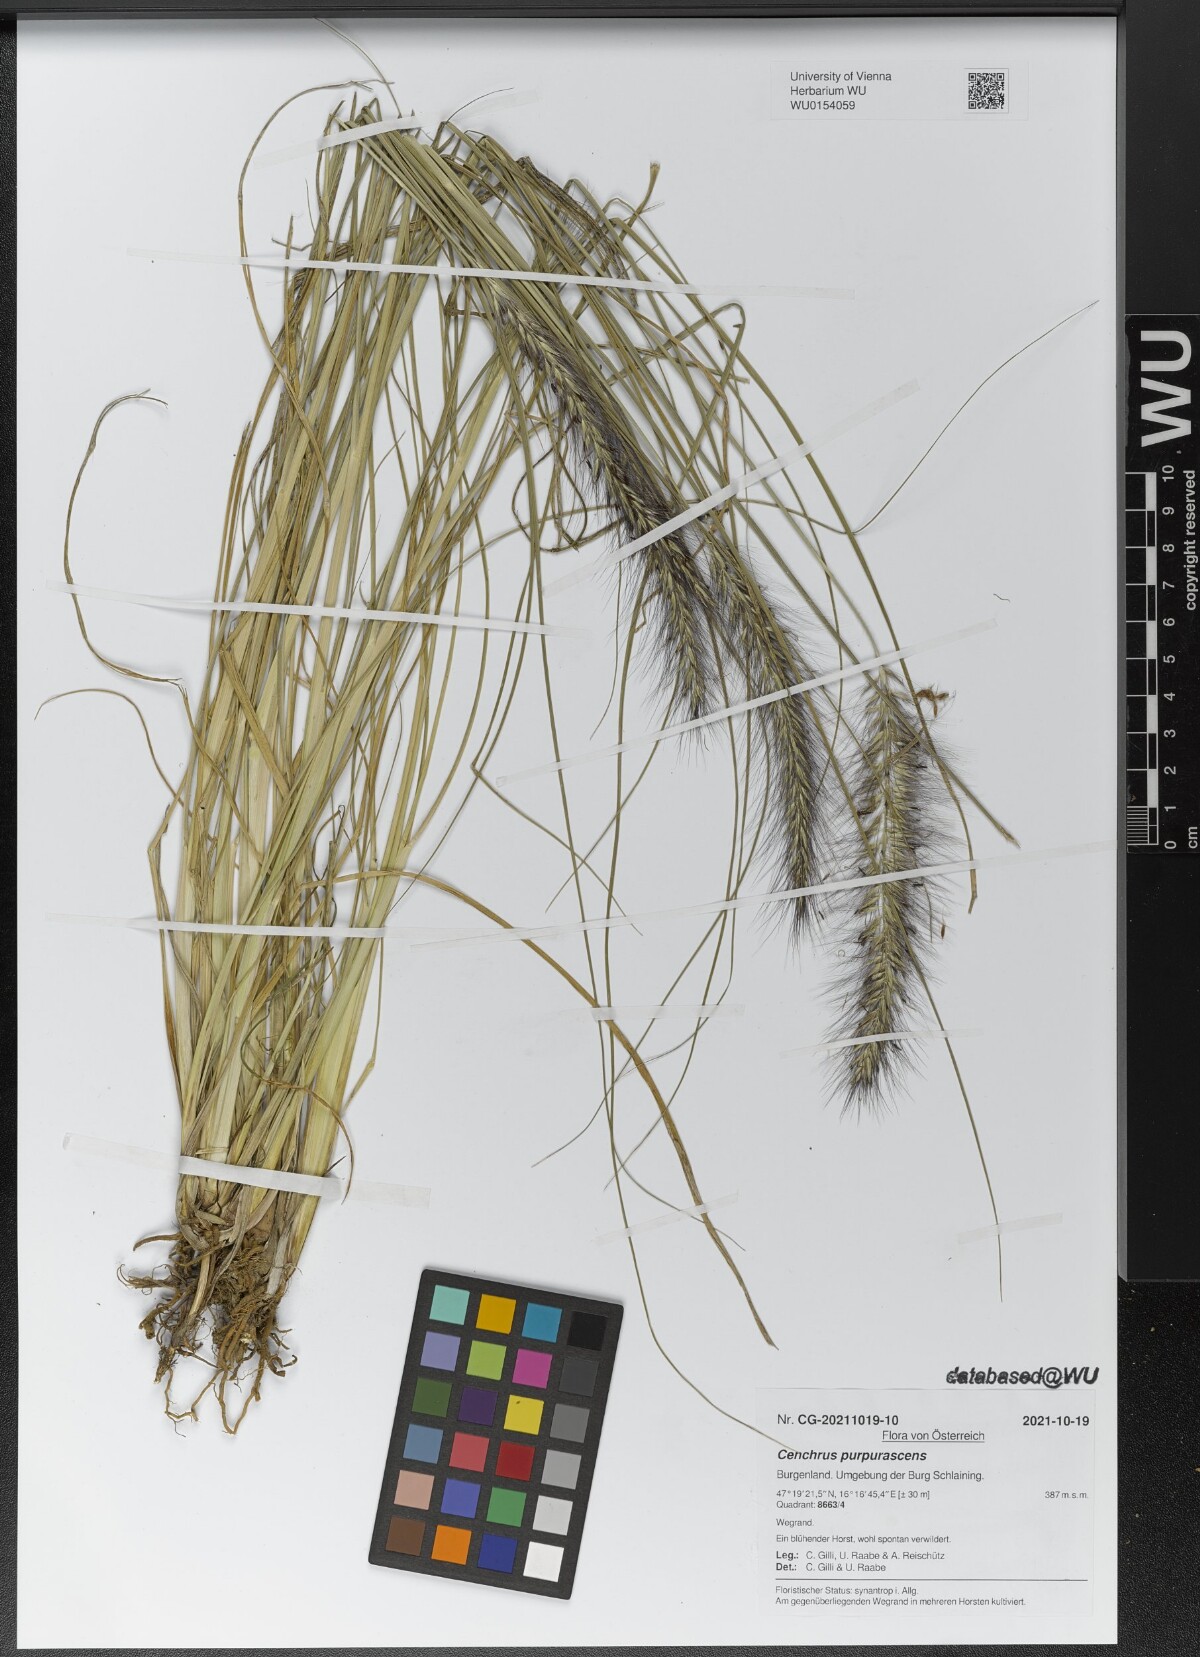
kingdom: Plantae
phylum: Tracheophyta
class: Liliopsida
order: Poales
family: Poaceae
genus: Cenchrus
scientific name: Cenchrus alopecuroides
